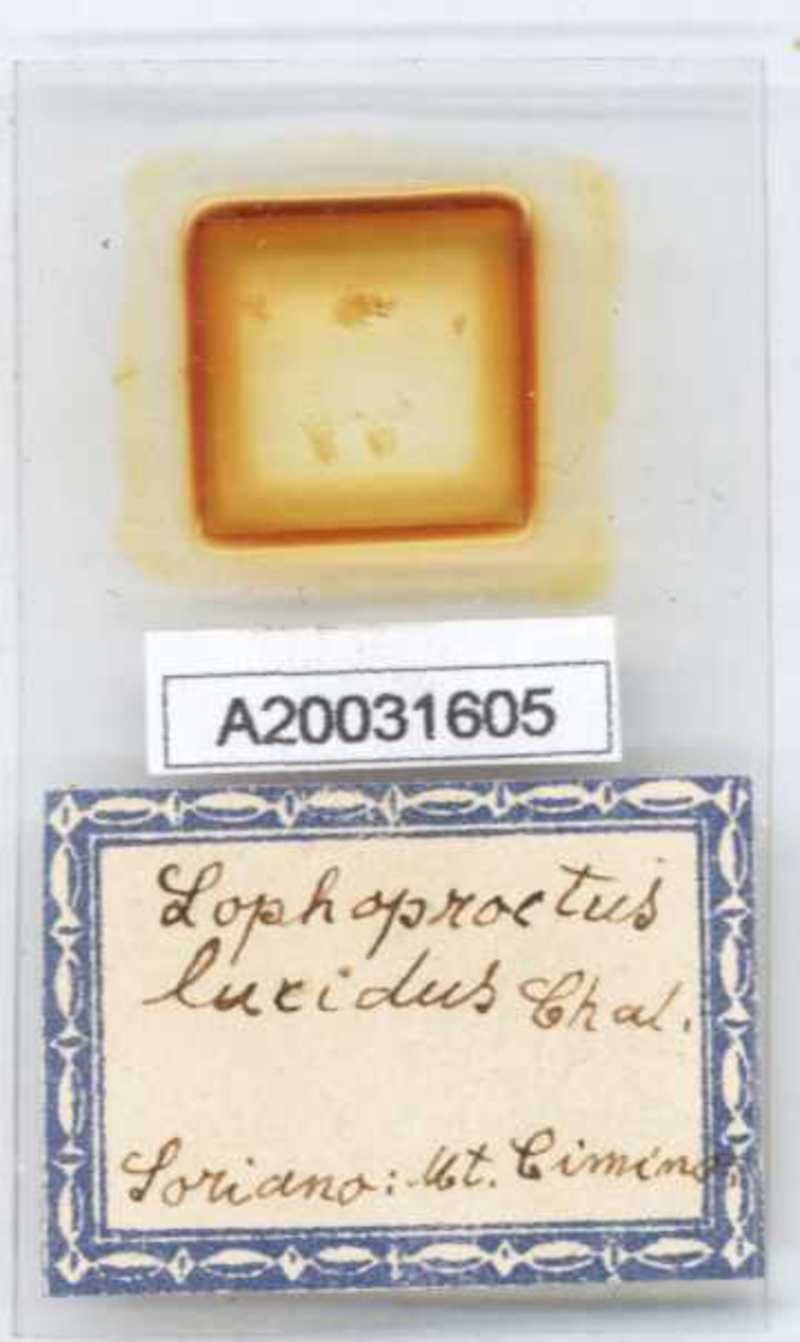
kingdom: Animalia
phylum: Arthropoda
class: Diplopoda
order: Polyxenida
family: Lophoproctidae
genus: Lophoproctus
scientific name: Lophoproctus lucidus
